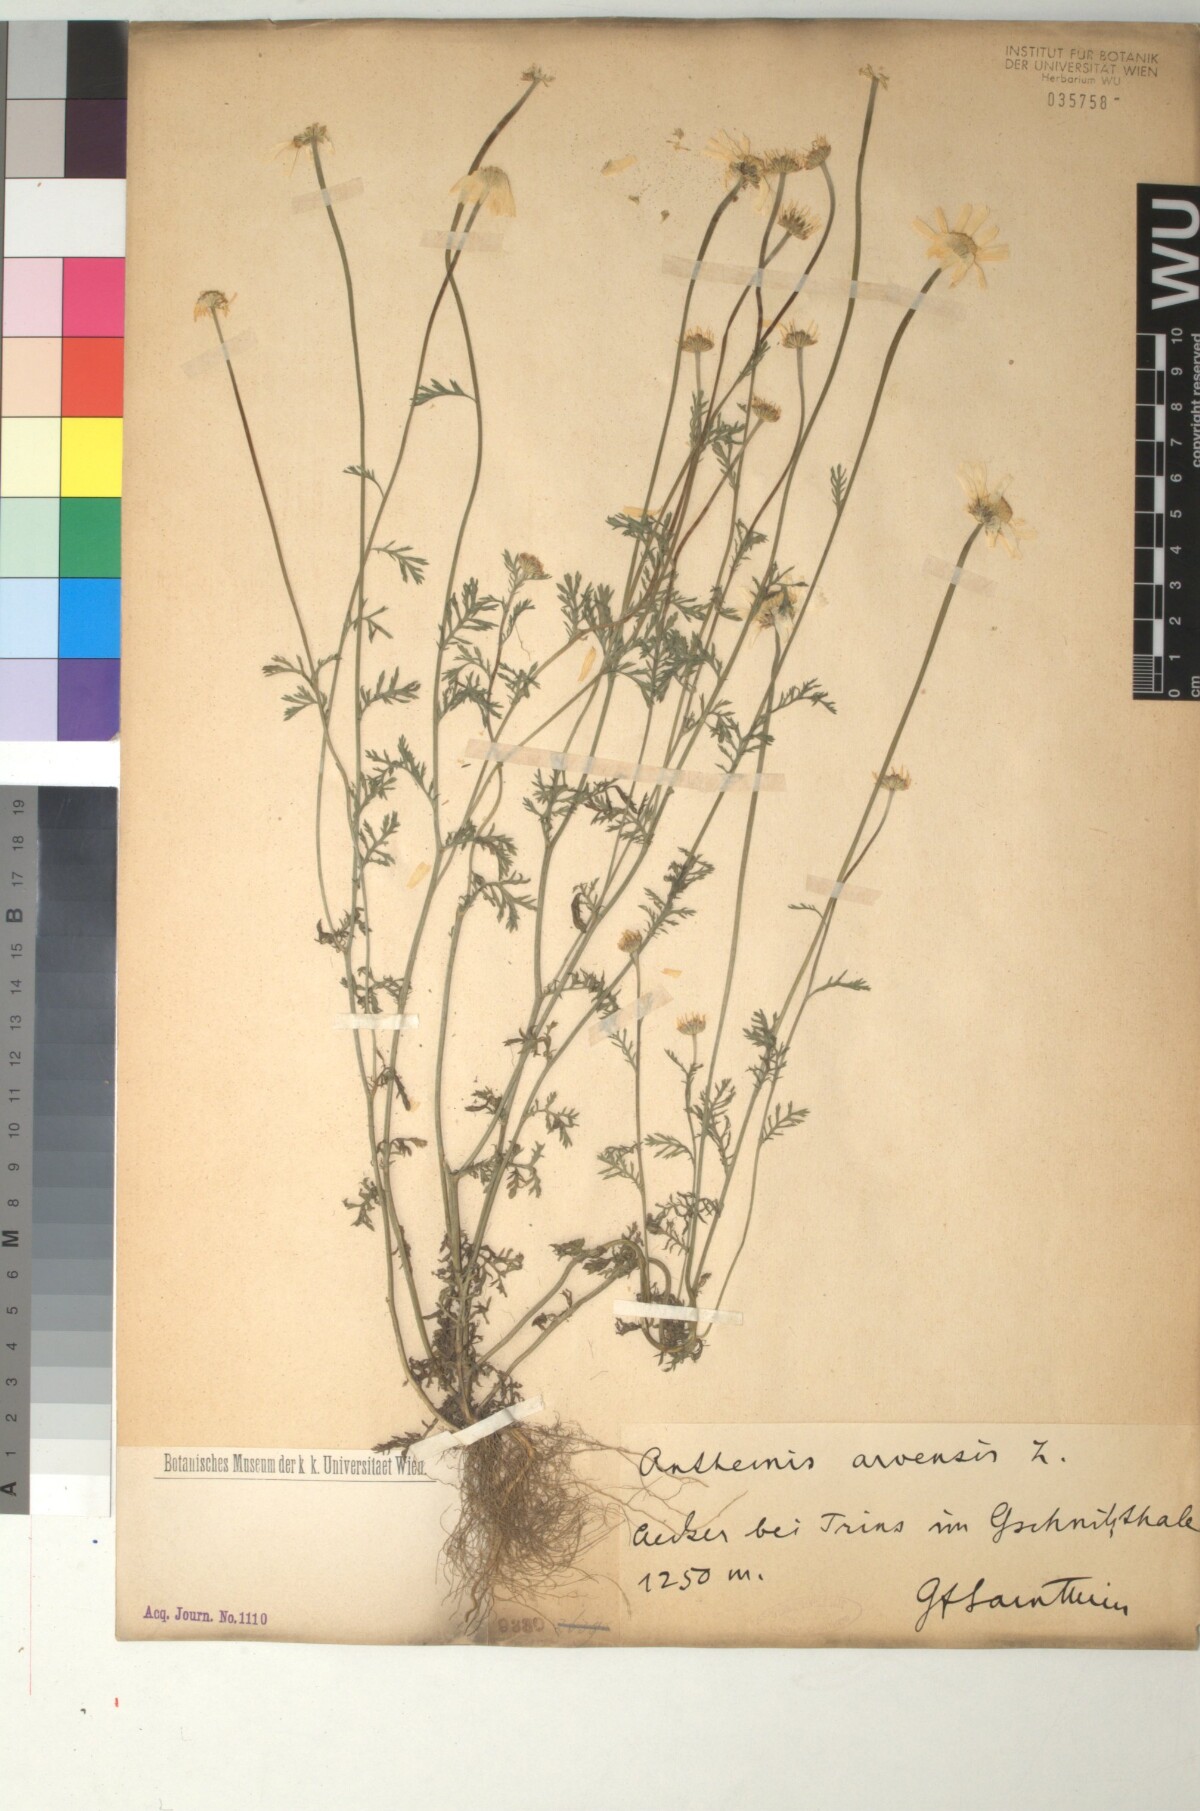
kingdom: Plantae
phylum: Tracheophyta
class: Magnoliopsida
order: Asterales
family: Asteraceae
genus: Anthemis
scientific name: Anthemis arvensis
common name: Corn chamomile
